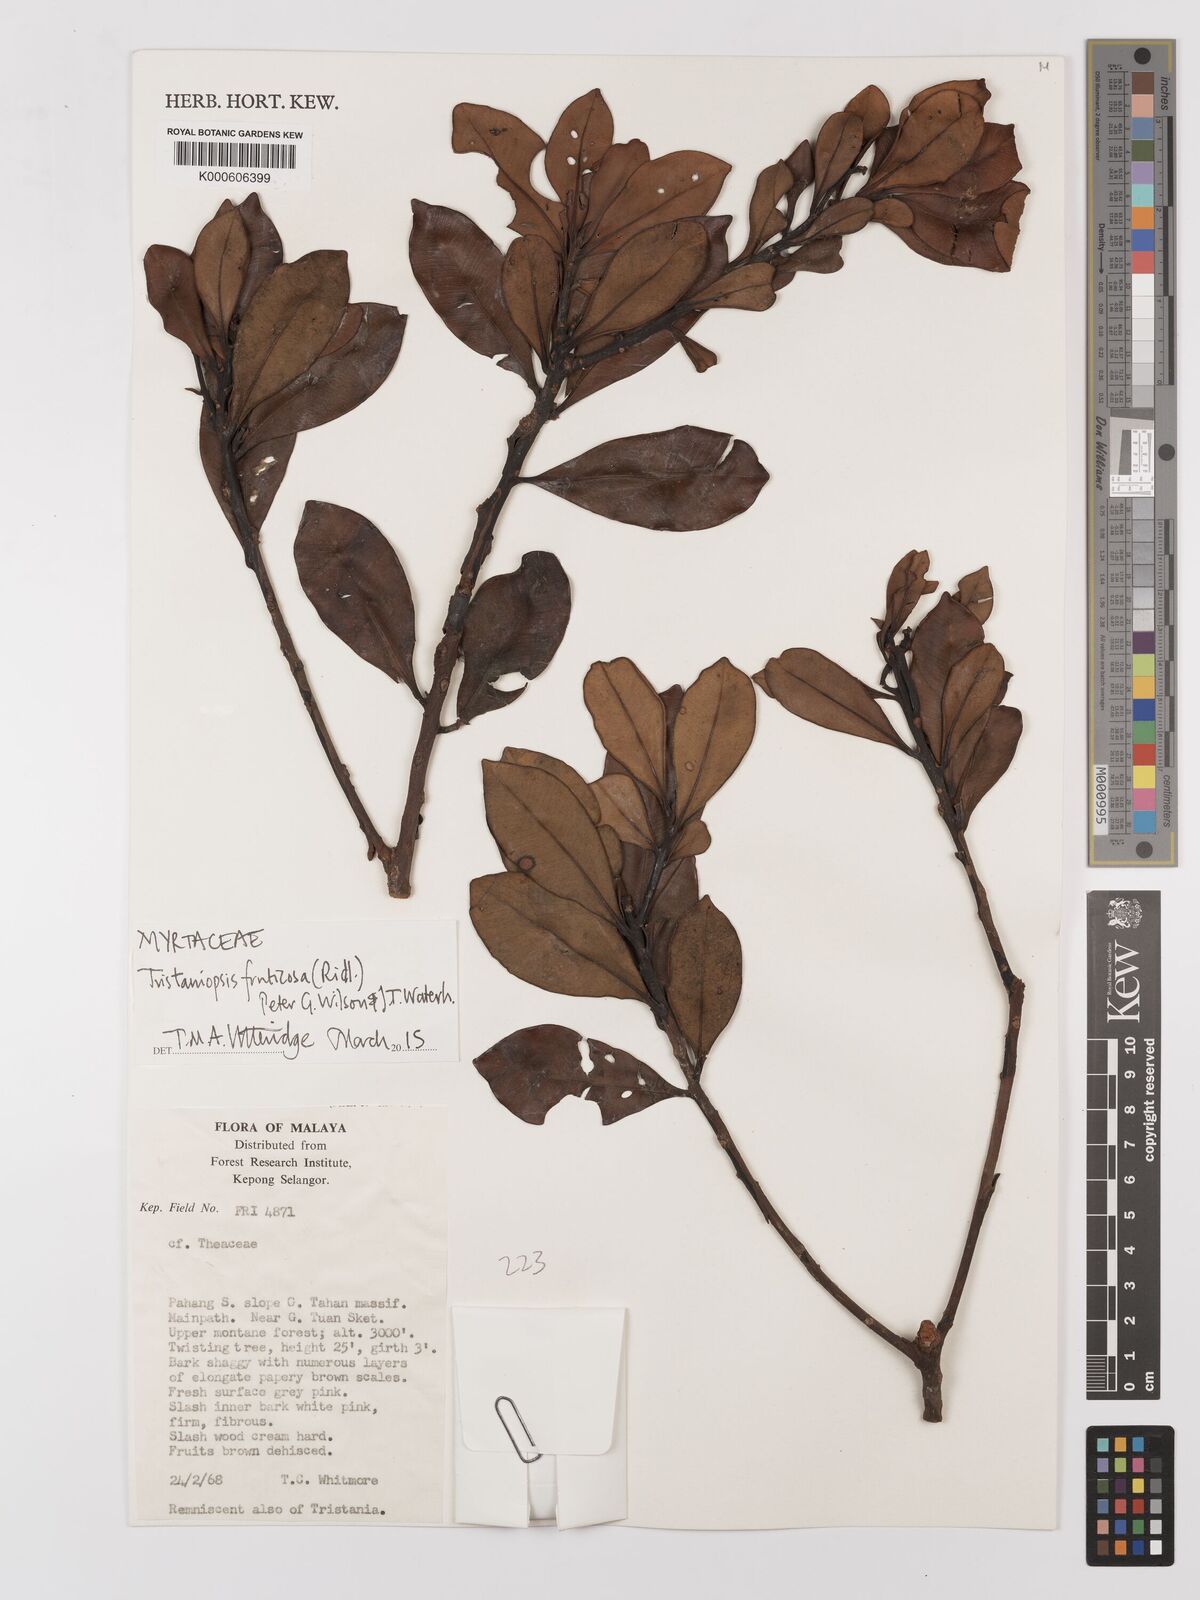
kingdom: Plantae
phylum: Tracheophyta
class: Magnoliopsida
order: Myrtales
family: Myrtaceae
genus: Tristaniopsis
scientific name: Tristaniopsis fruticosa
